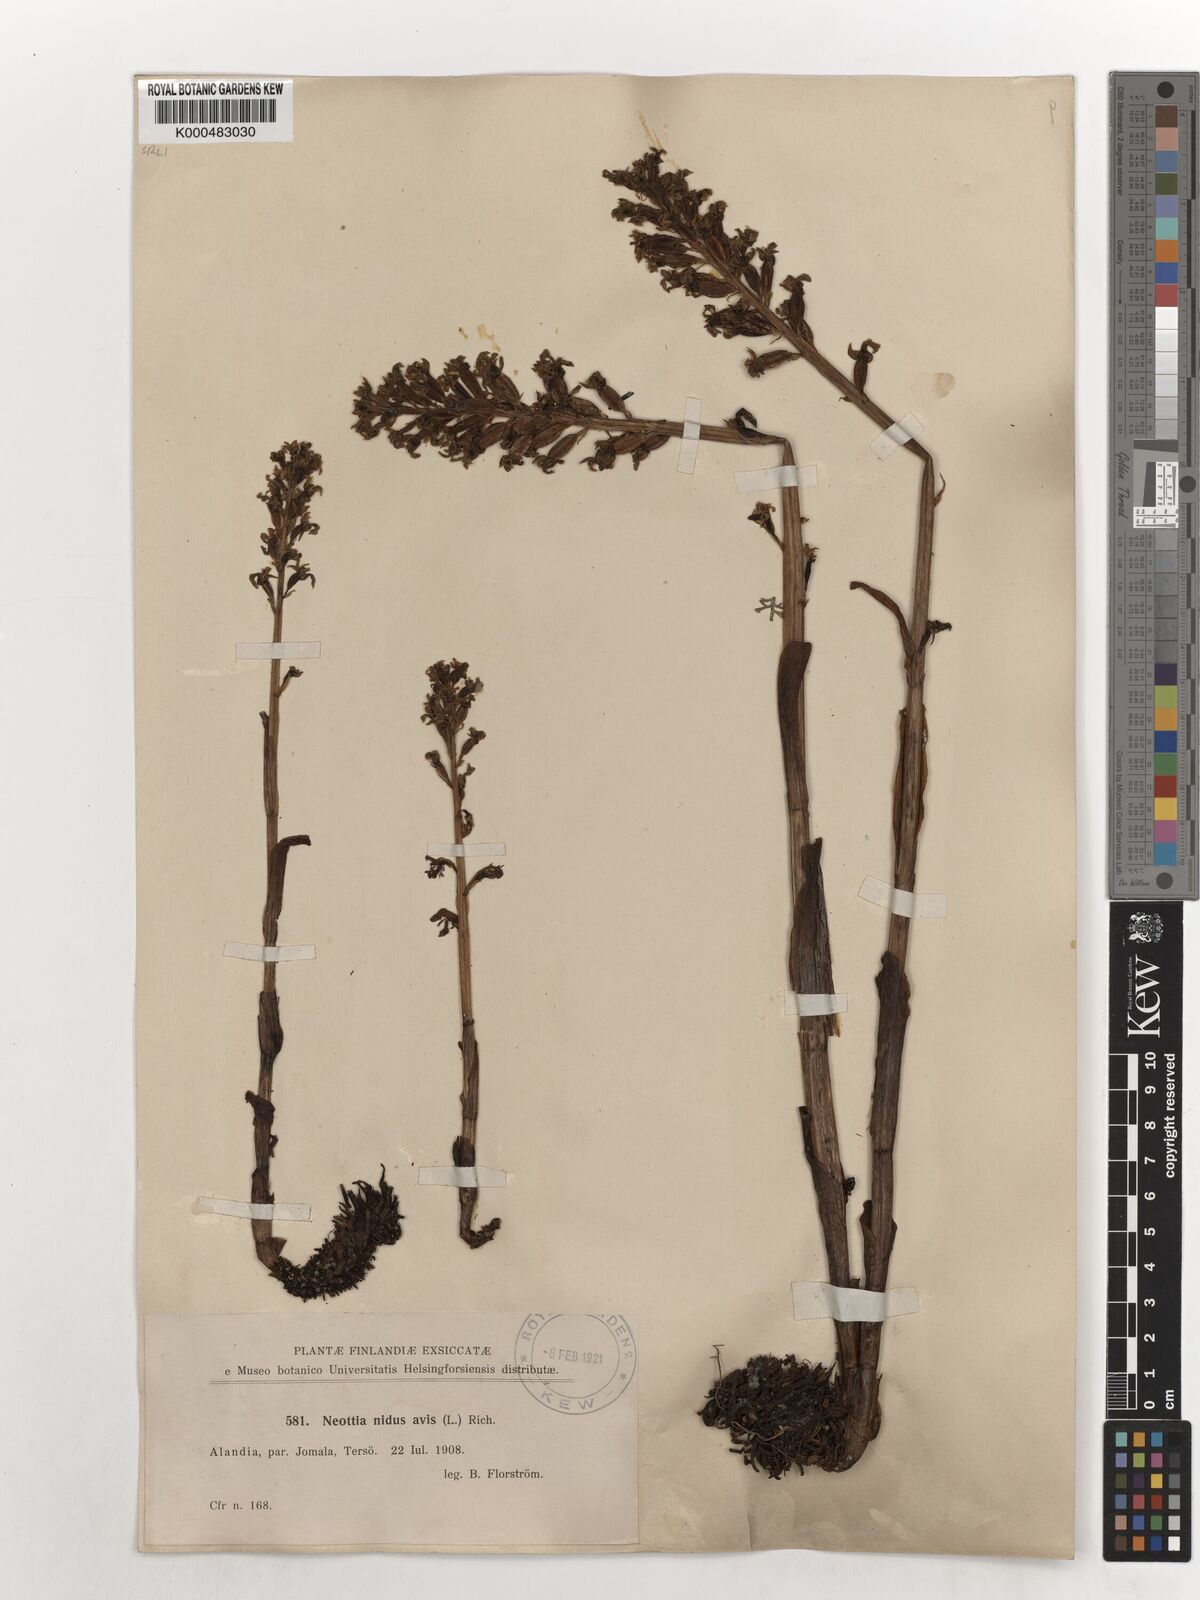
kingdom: Plantae
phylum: Tracheophyta
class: Liliopsida
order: Asparagales
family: Orchidaceae
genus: Neottia
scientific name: Neottia nidus-avis
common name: Bird's-nest orchid
